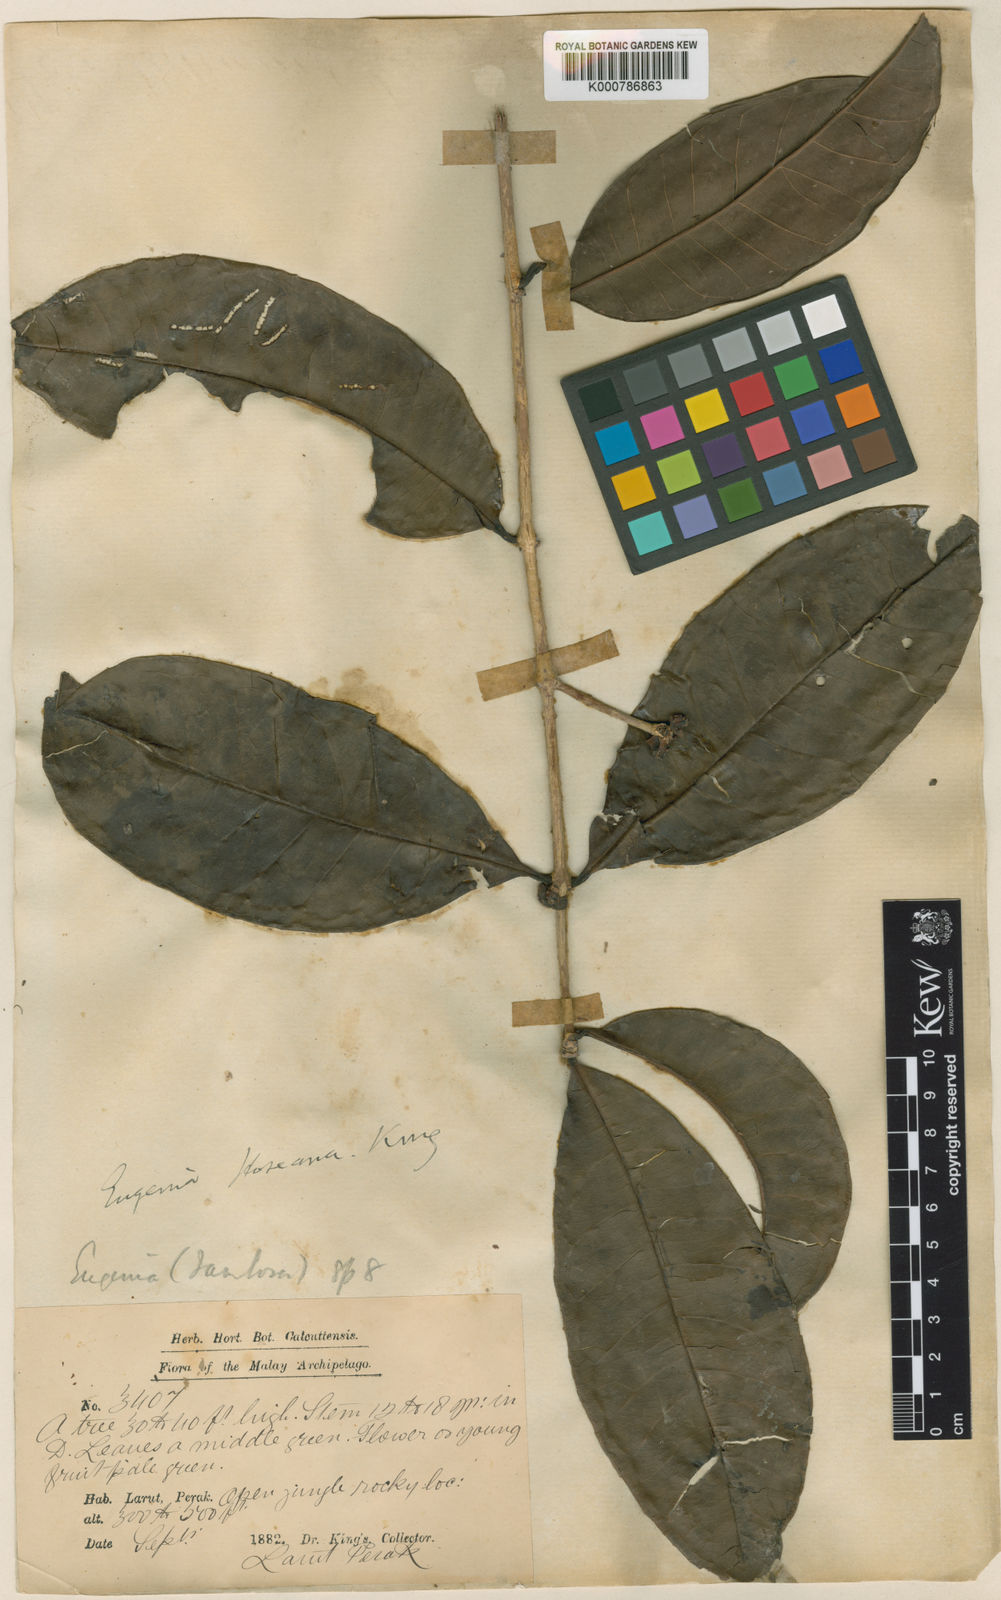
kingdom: Plantae
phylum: Tracheophyta
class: Magnoliopsida
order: Myrtales
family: Myrtaceae
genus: Syzygium
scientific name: Syzygium hoseanum
